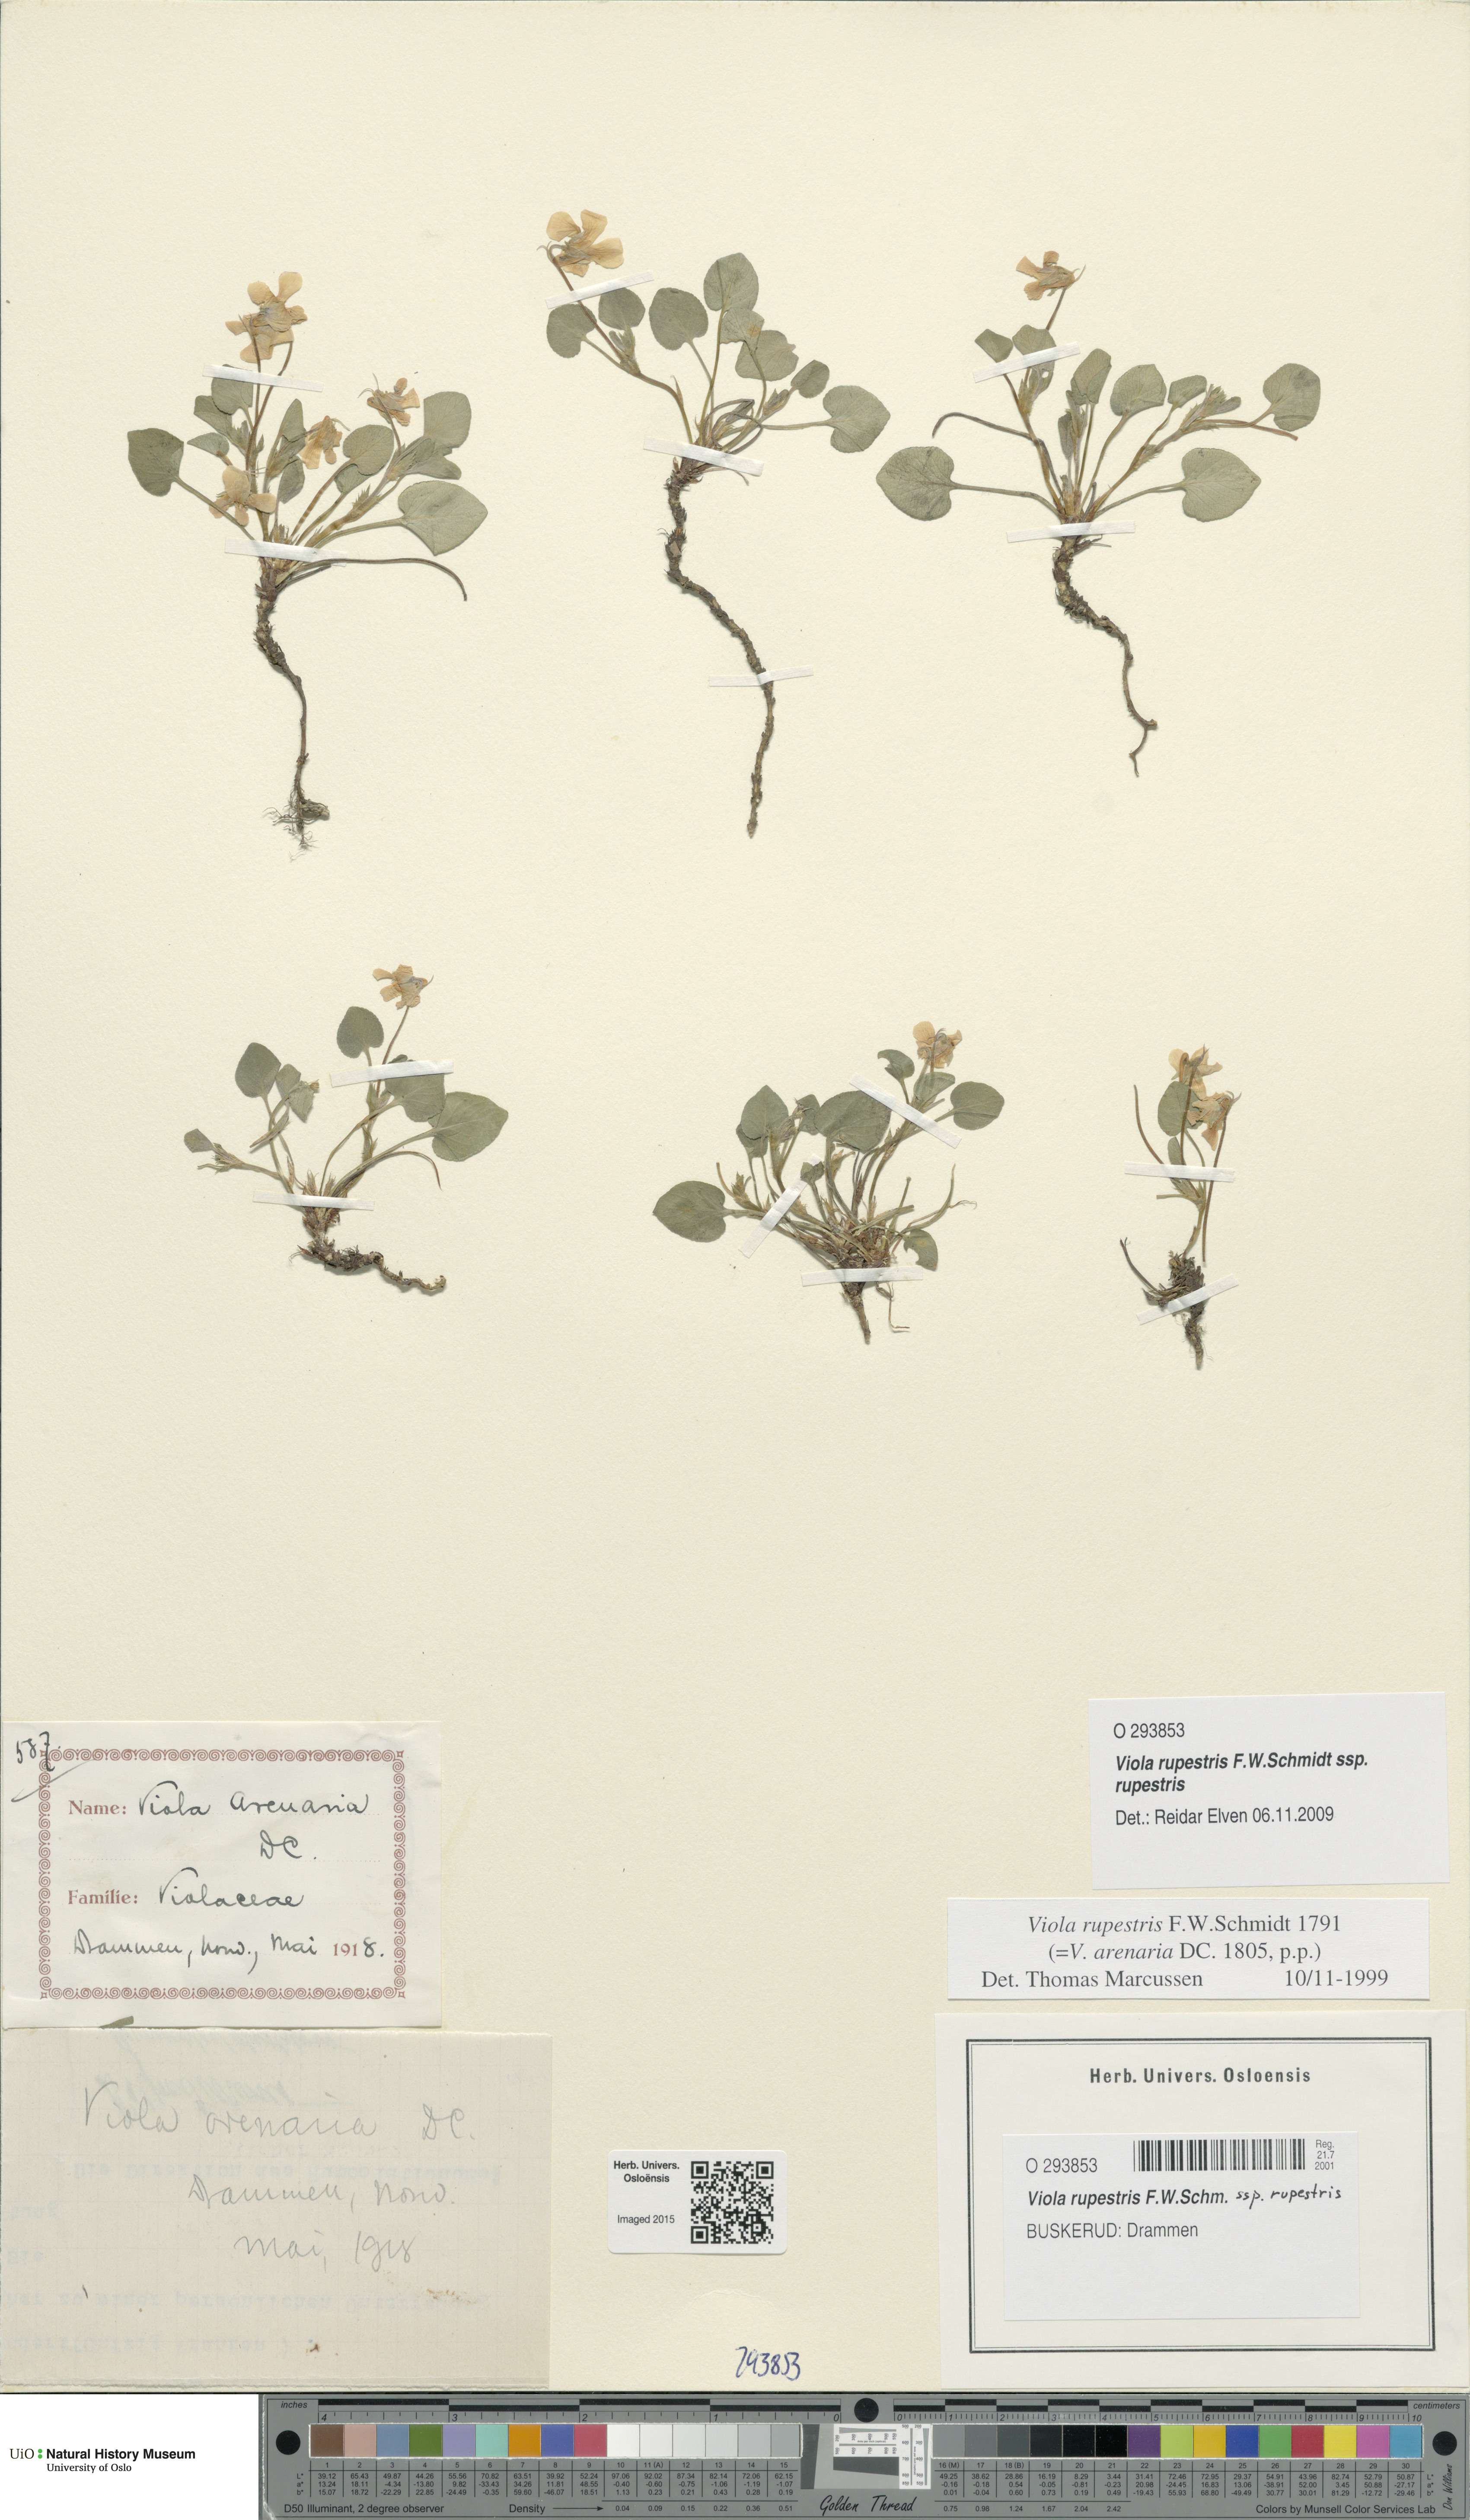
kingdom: Plantae
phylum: Tracheophyta
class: Magnoliopsida
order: Malpighiales
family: Violaceae
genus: Viola
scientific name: Viola rupestris
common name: Teesdale violet
